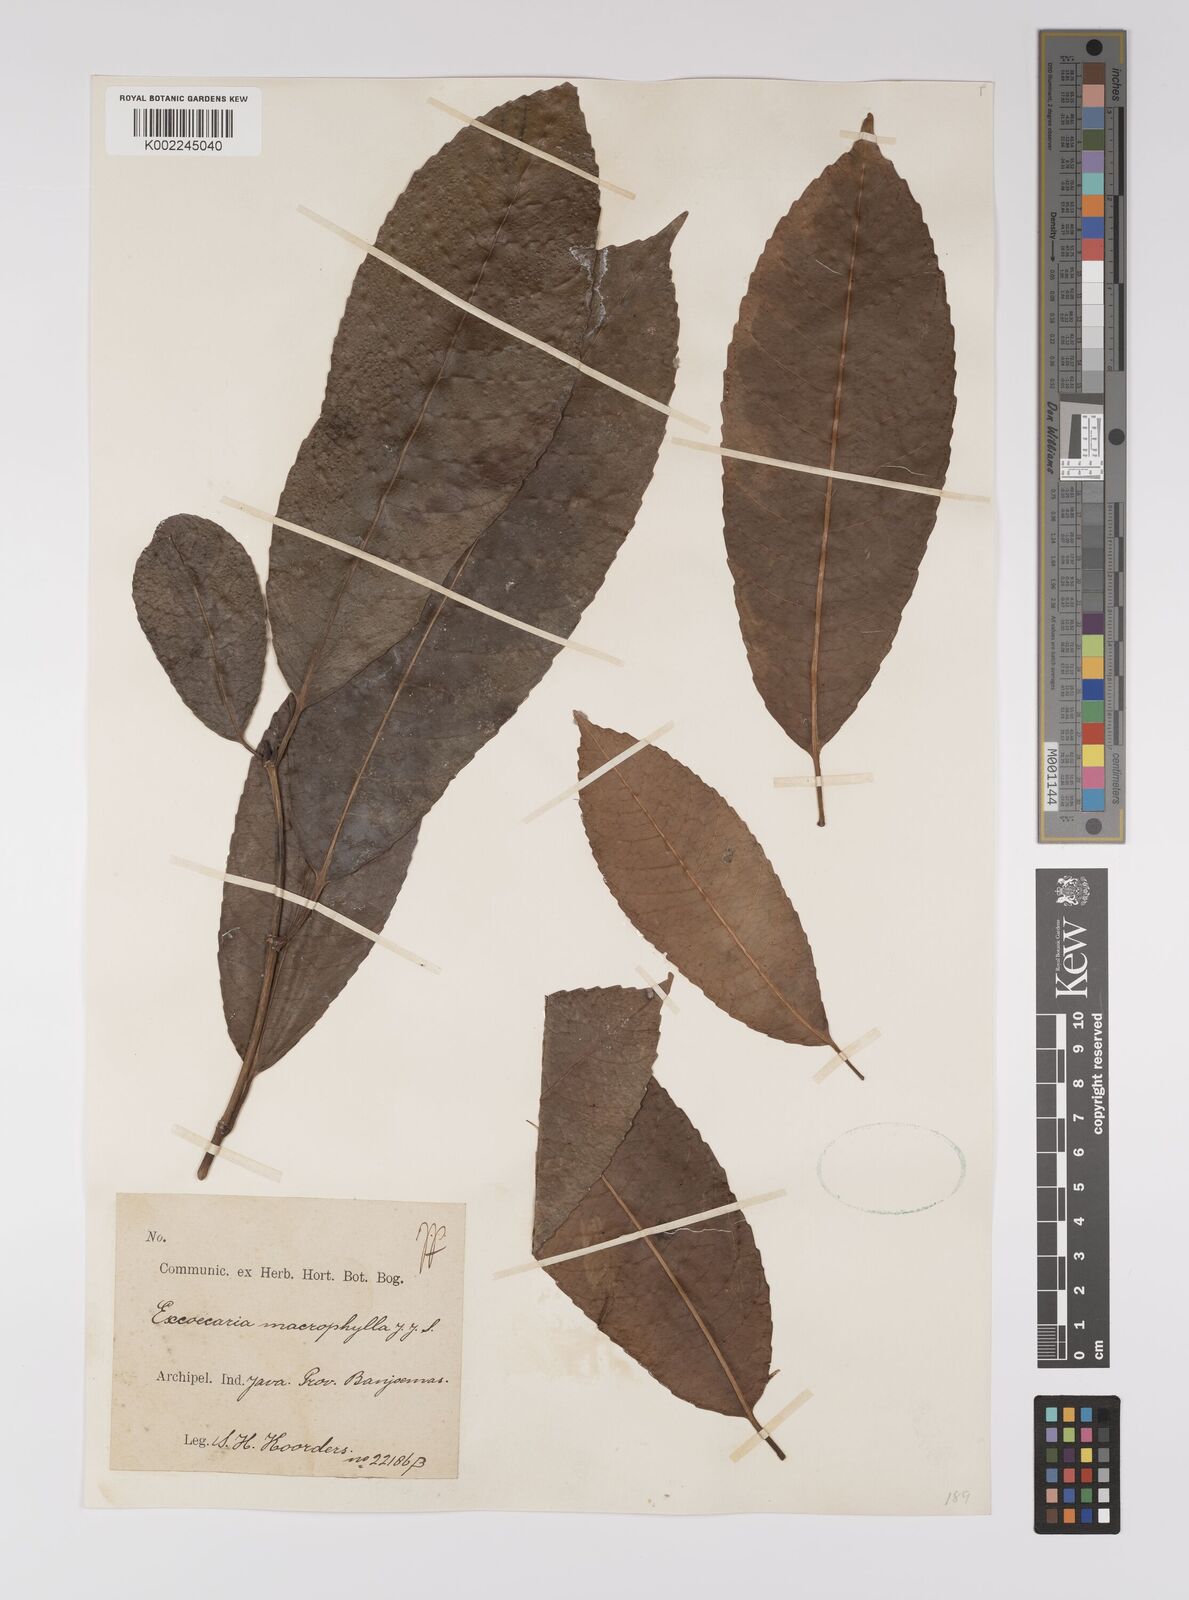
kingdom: Plantae
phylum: Tracheophyta
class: Magnoliopsida
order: Malpighiales
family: Euphorbiaceae
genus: Excoecaria
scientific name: Excoecaria bantamensis
